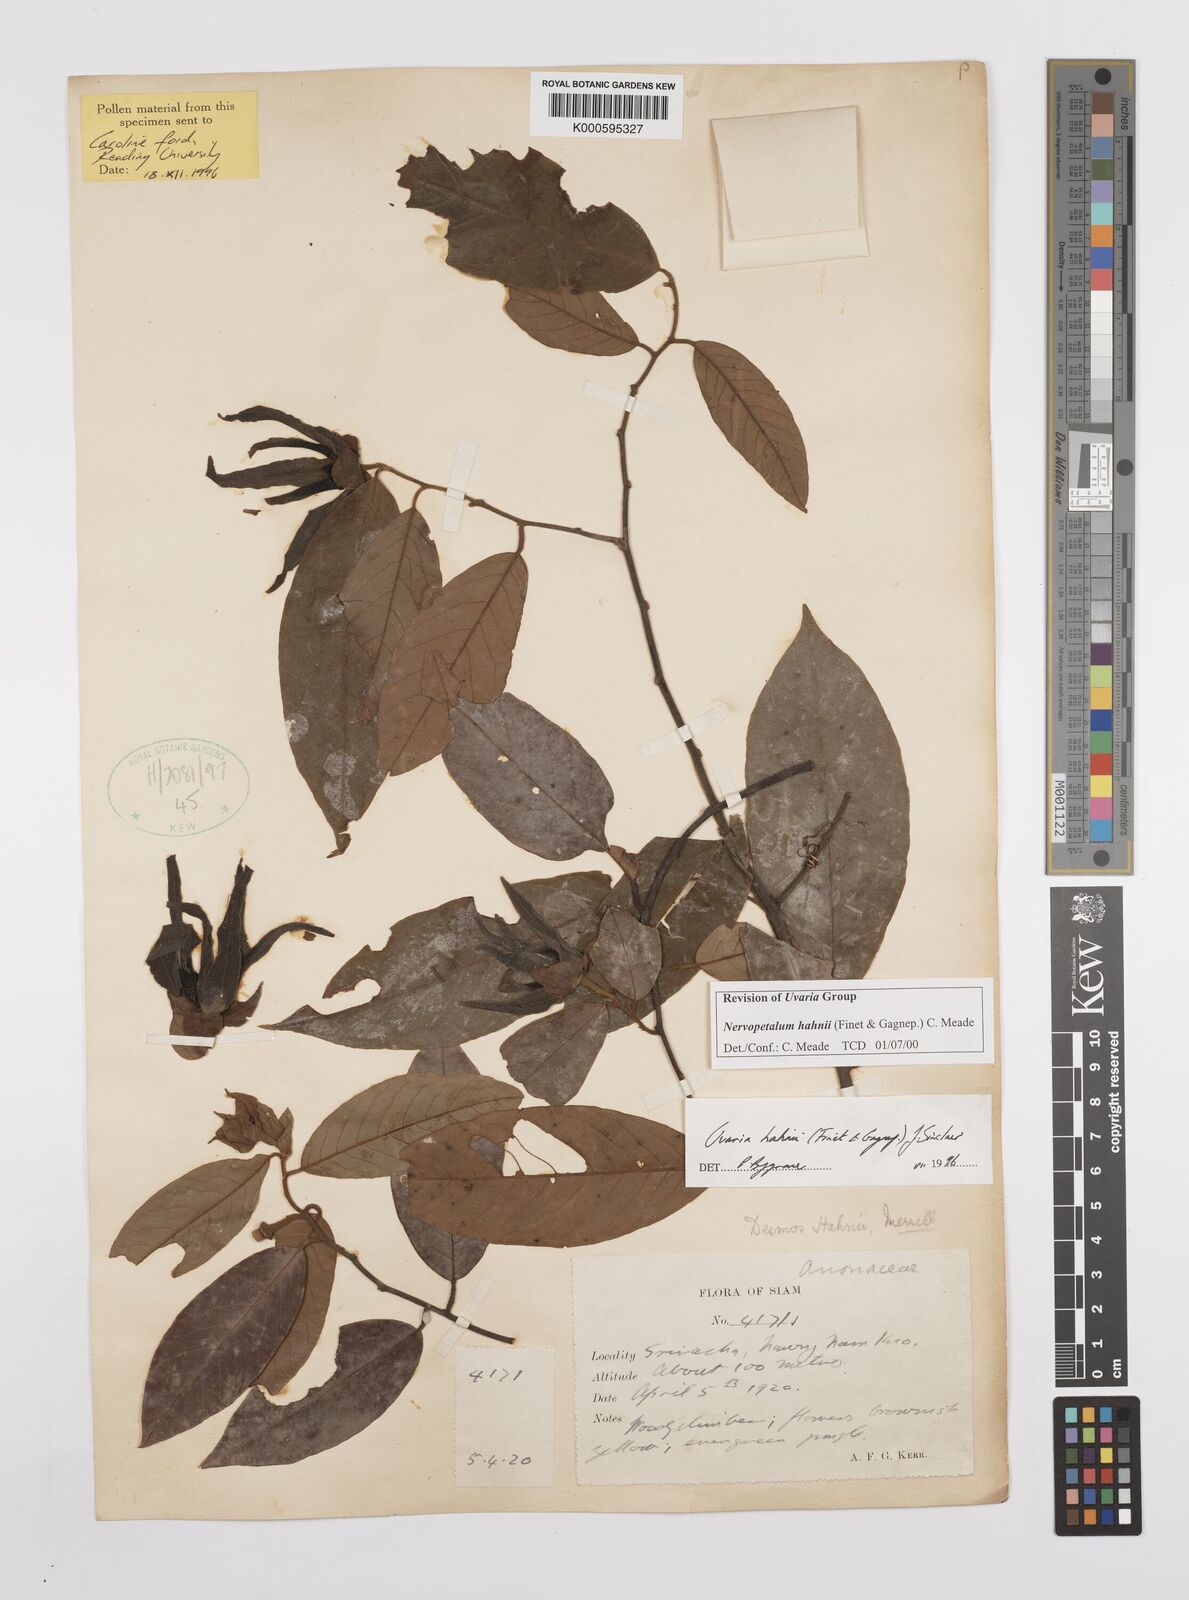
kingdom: Plantae
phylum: Tracheophyta
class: Magnoliopsida
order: Magnoliales
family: Annonaceae
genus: Uvaria
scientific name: Uvaria
